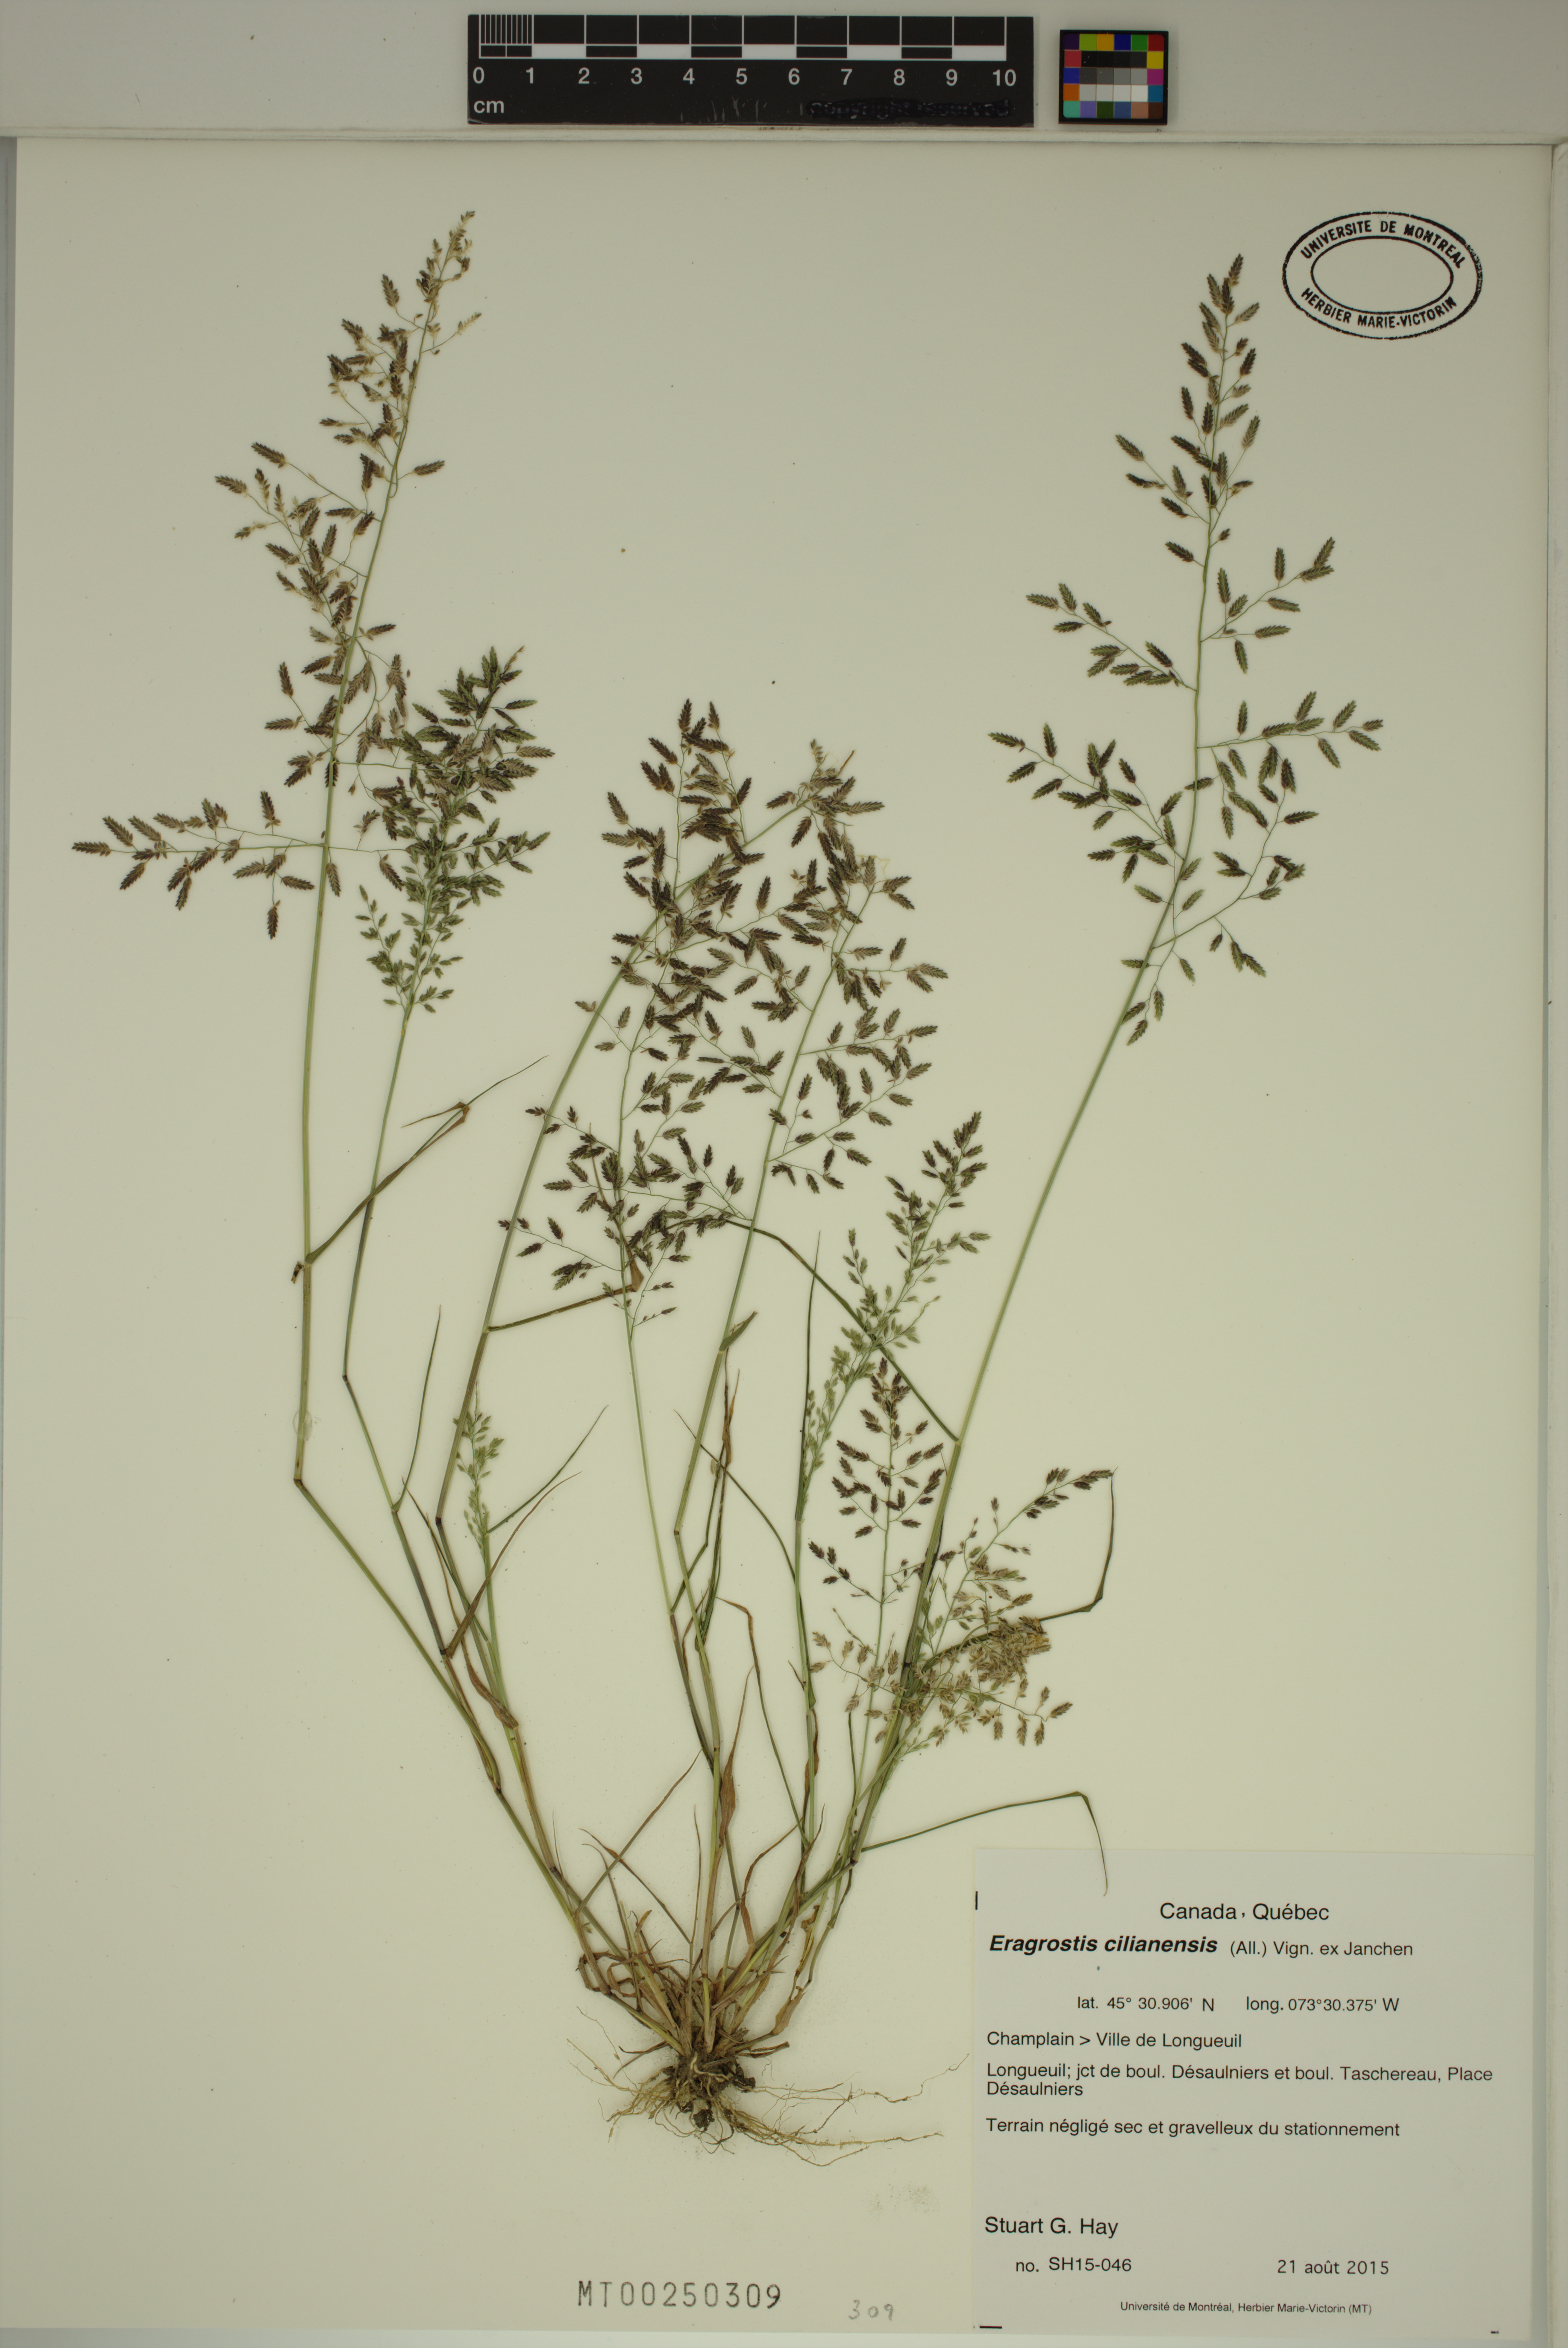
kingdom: Plantae
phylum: Tracheophyta
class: Liliopsida
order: Poales
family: Poaceae
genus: Eragrostis
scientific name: Eragrostis cilianensis
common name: Stinkgrass
